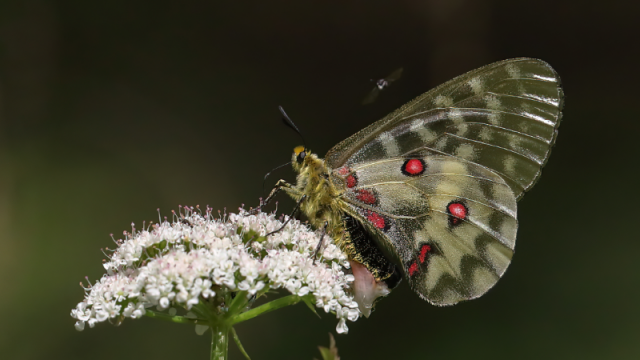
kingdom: Animalia
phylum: Arthropoda
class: Insecta
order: Lepidoptera
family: Papilionidae
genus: Parnassius
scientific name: Parnassius clodius
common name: Clodius Parnassian
